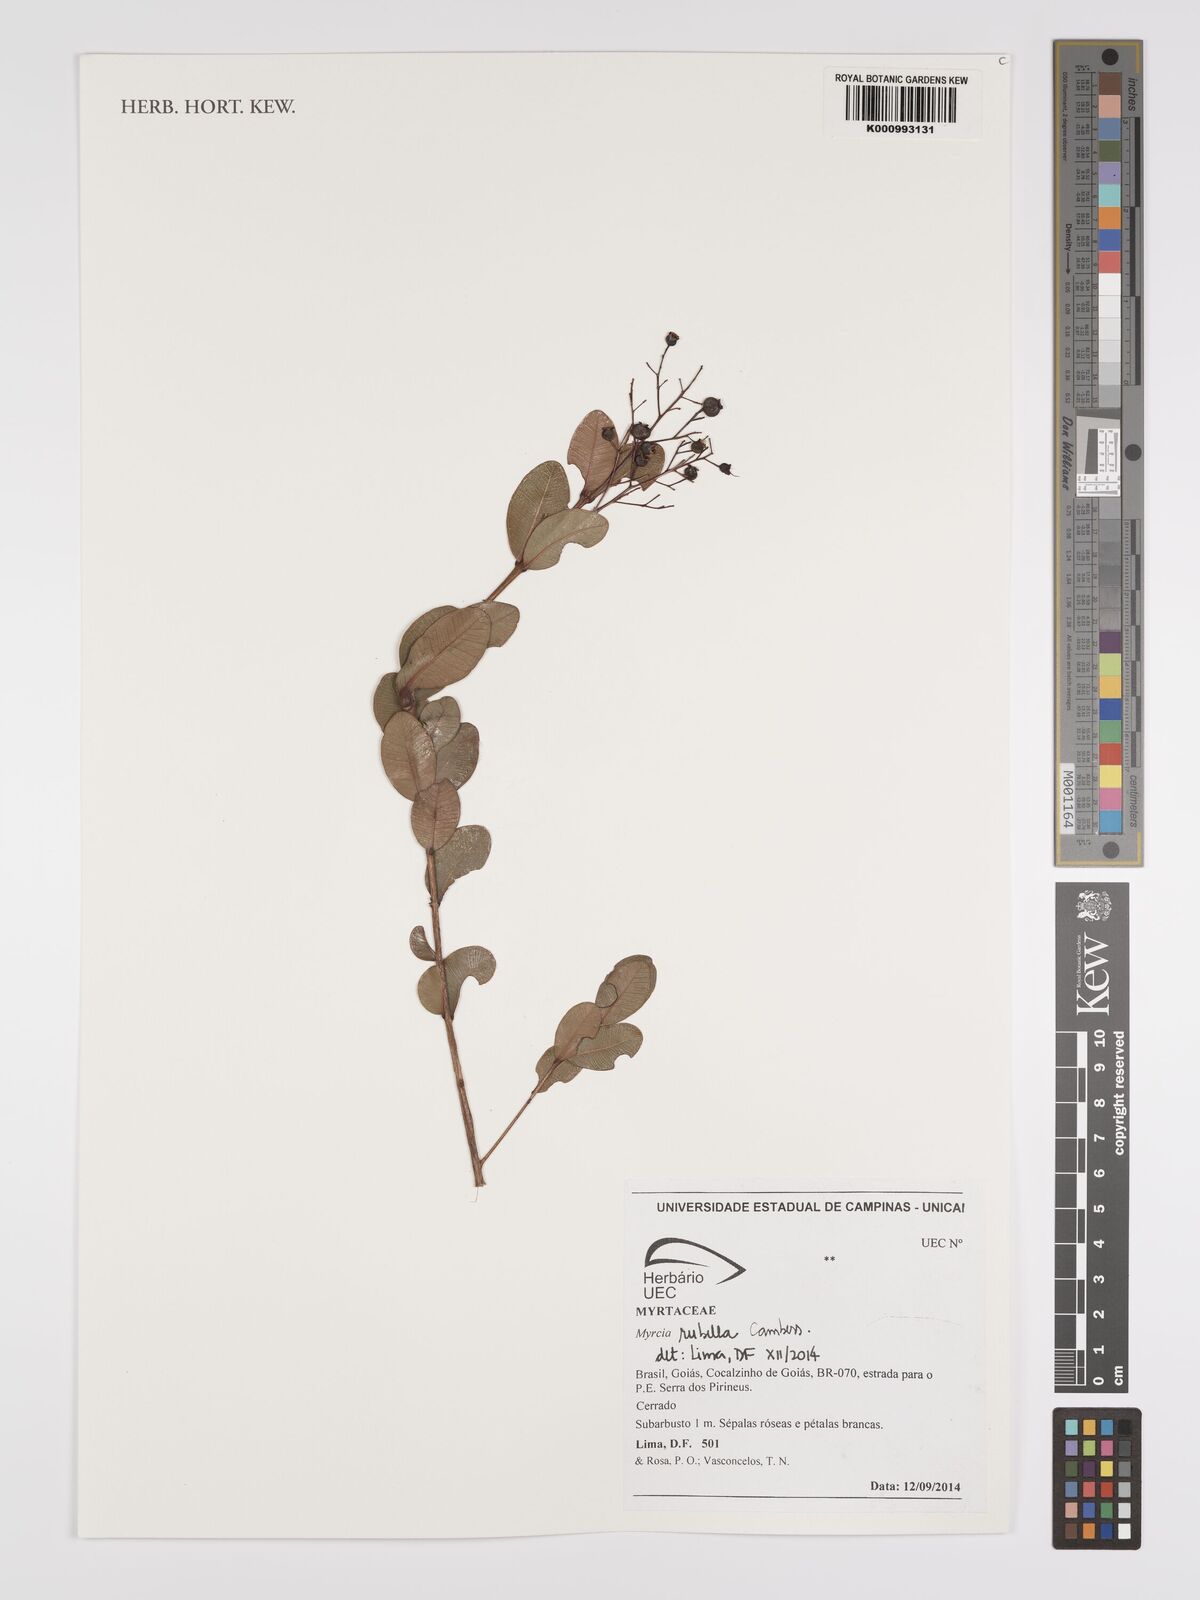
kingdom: Plantae
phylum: Tracheophyta
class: Magnoliopsida
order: Myrtales
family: Myrtaceae
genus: Myrcia
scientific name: Myrcia guianensis
